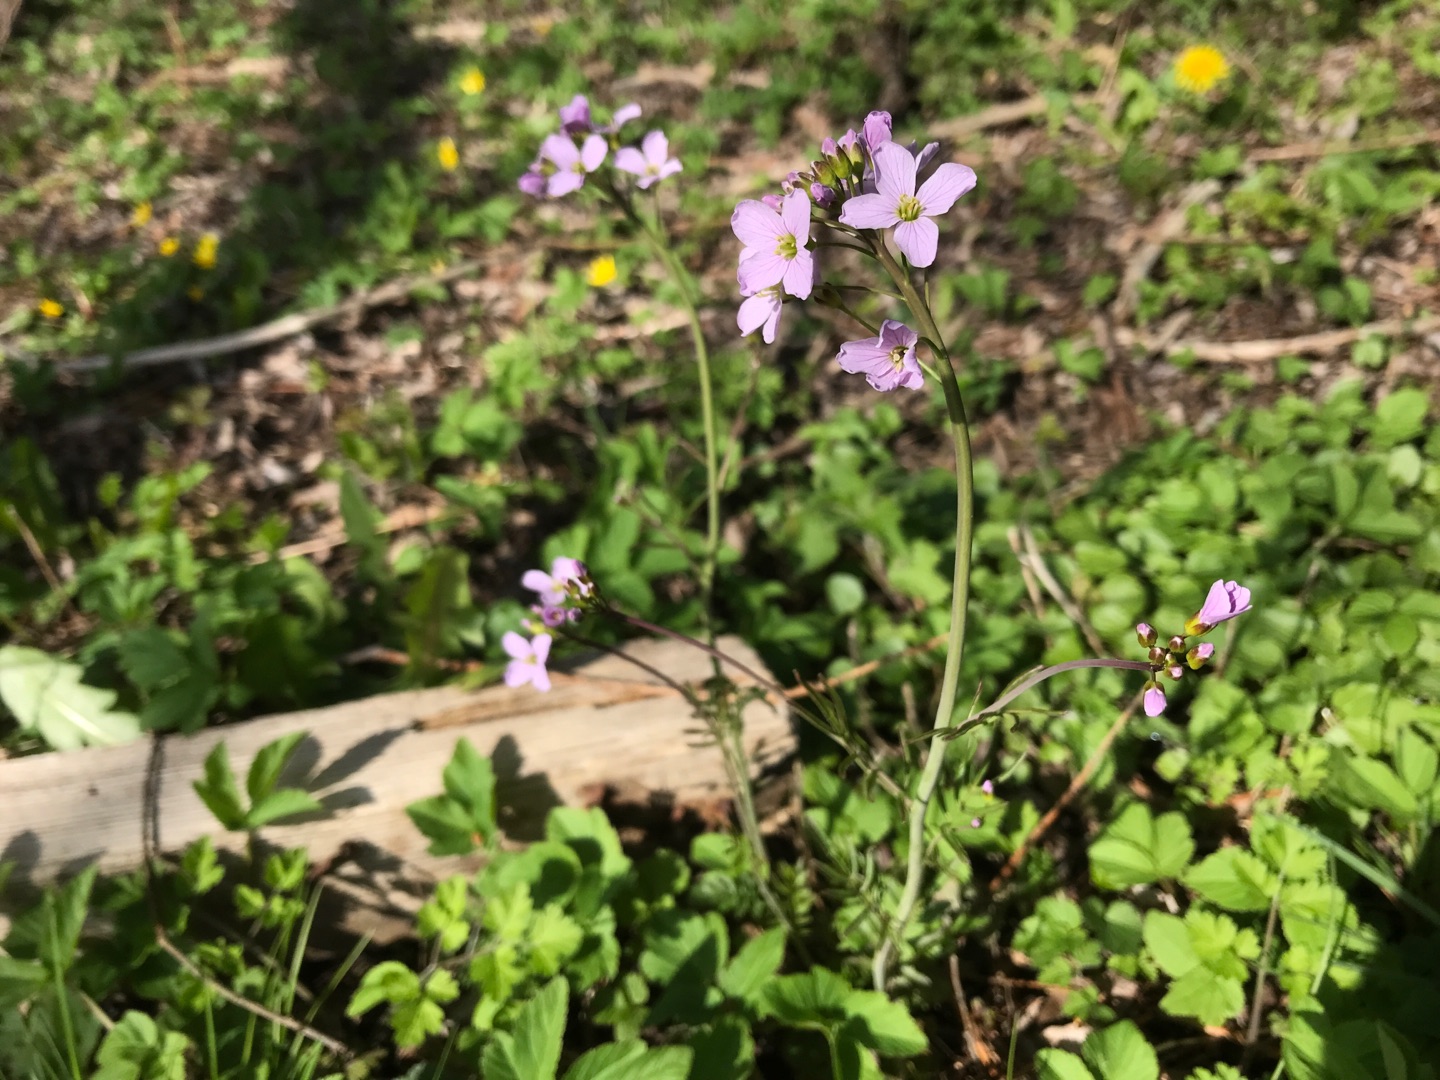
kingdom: Plantae
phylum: Tracheophyta
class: Magnoliopsida
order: Brassicales
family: Brassicaceae
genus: Cardamine
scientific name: Cardamine pratensis
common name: Engkarse
